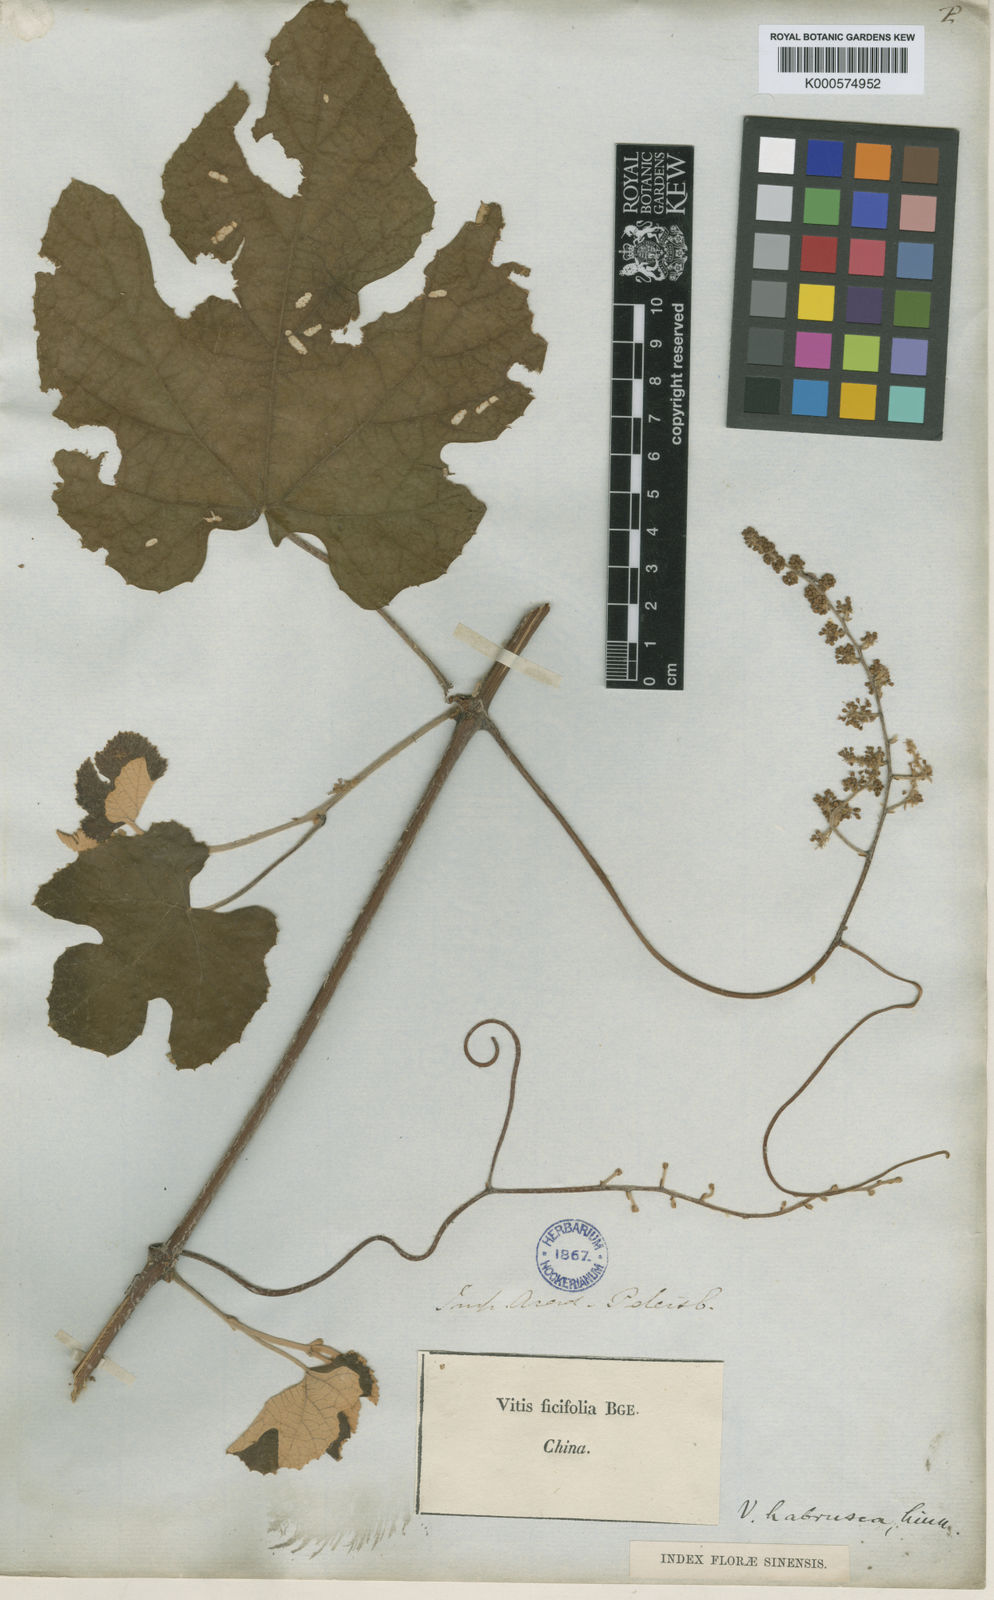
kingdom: Plantae
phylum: Tracheophyta
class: Magnoliopsida
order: Vitales
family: Vitaceae
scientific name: Vitaceae
